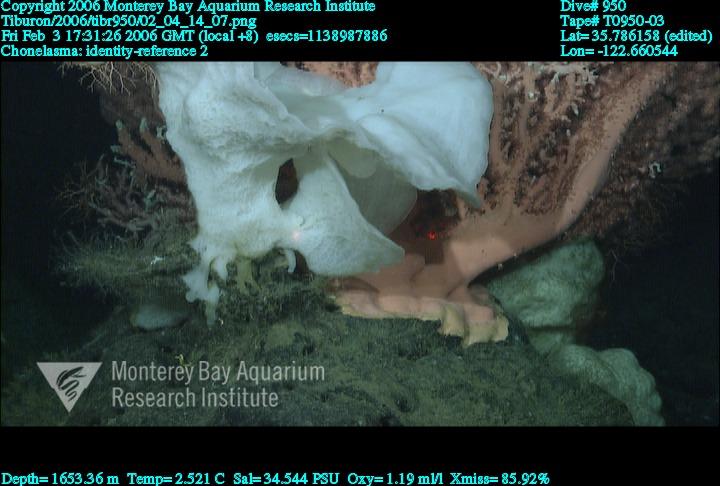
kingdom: Animalia
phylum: Porifera
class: Hexactinellida
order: Sceptrulophora
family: Euretidae
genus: Chonelasma
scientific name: Chonelasma
